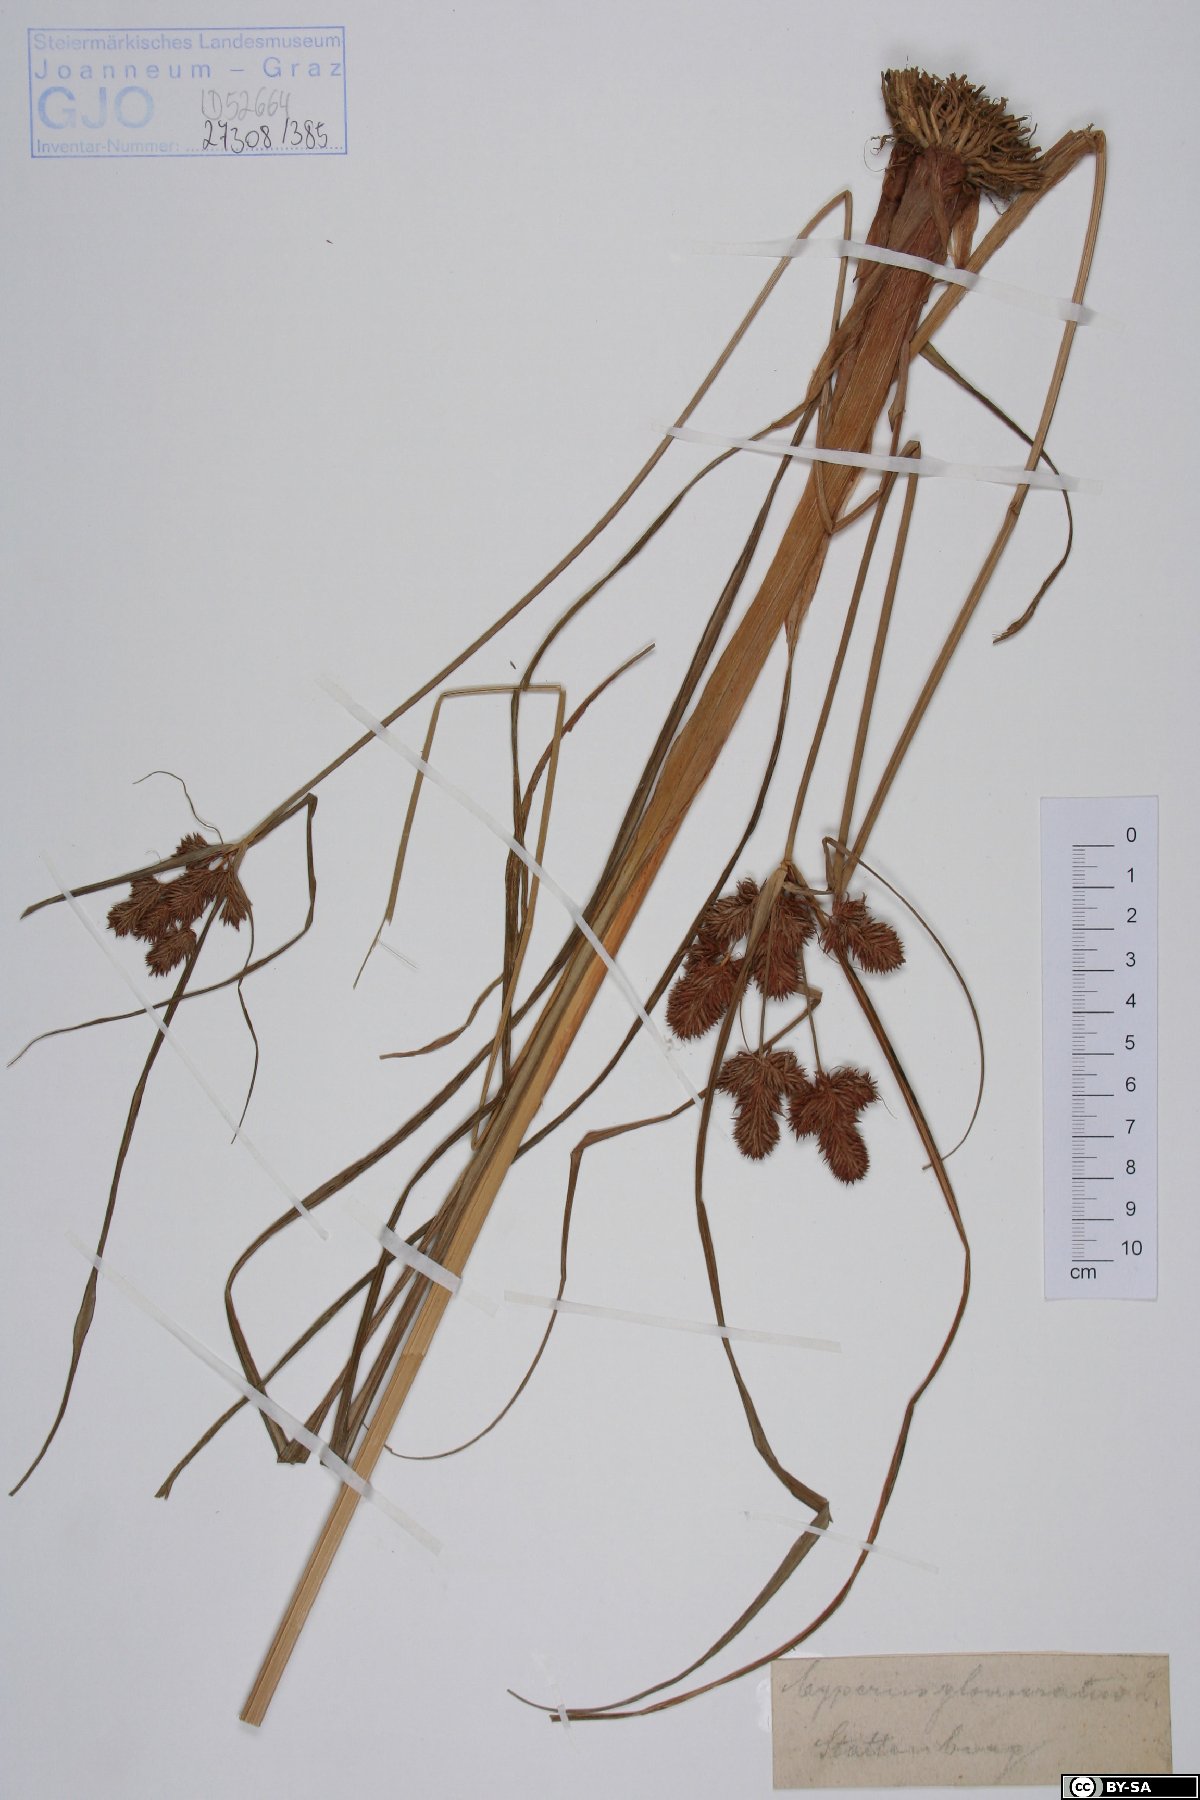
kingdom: Plantae
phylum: Tracheophyta
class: Liliopsida
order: Poales
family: Cyperaceae
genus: Cyperus
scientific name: Cyperus glomeratus
